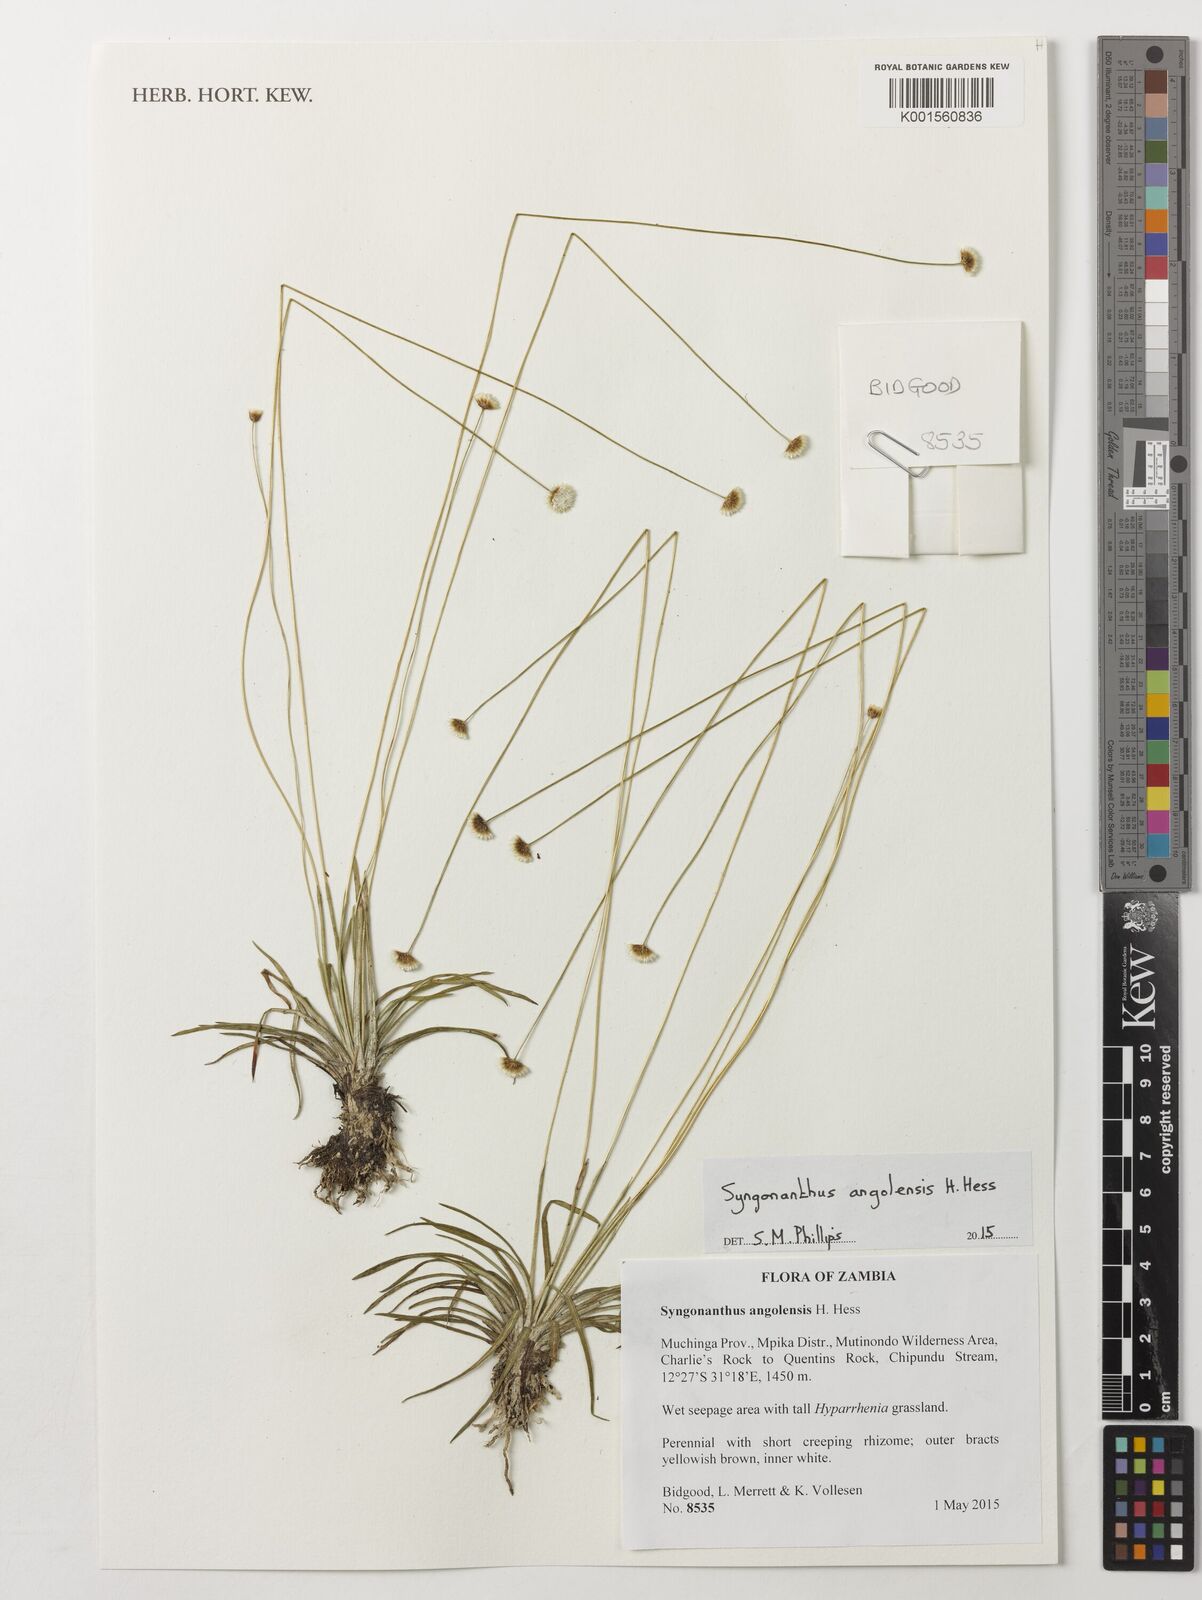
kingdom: Plantae
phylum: Tracheophyta
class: Liliopsida
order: Poales
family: Eriocaulaceae
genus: Syngonanthus
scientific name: Syngonanthus angolensis
